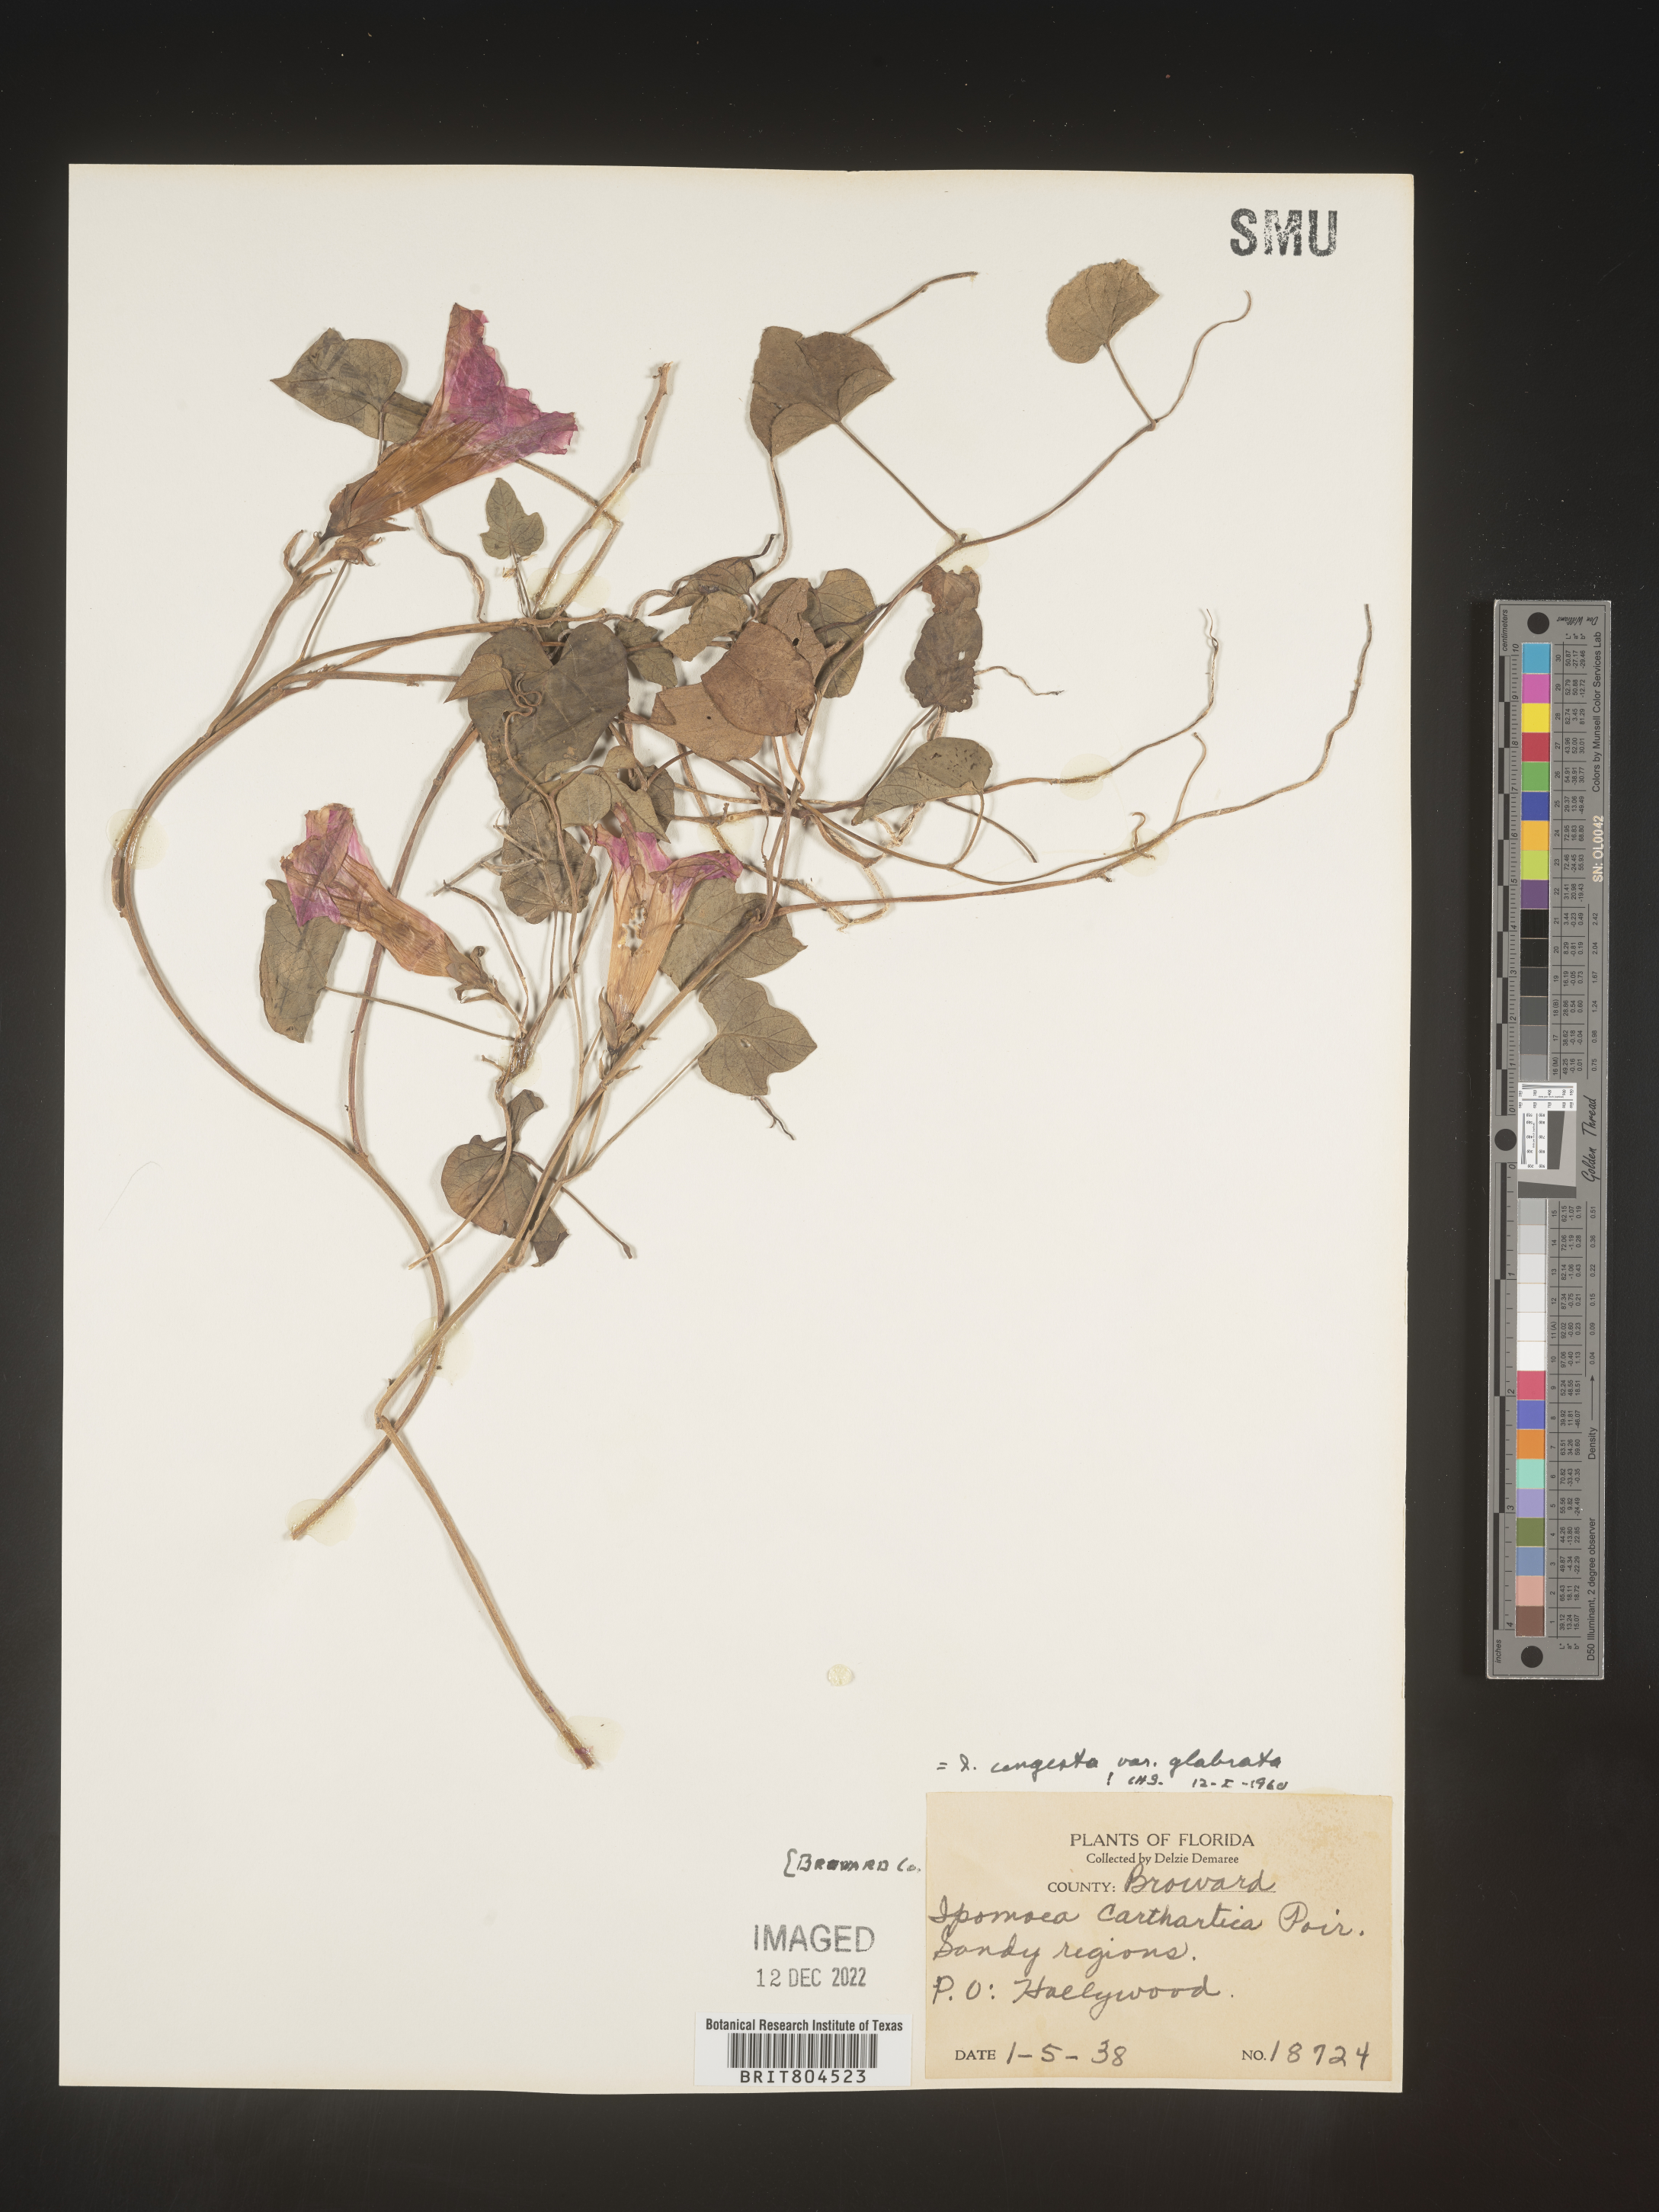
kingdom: Plantae
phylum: Tracheophyta
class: Magnoliopsida
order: Solanales
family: Convolvulaceae
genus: Ipomoea
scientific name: Ipomoea coccinea
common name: Red morning-glory
